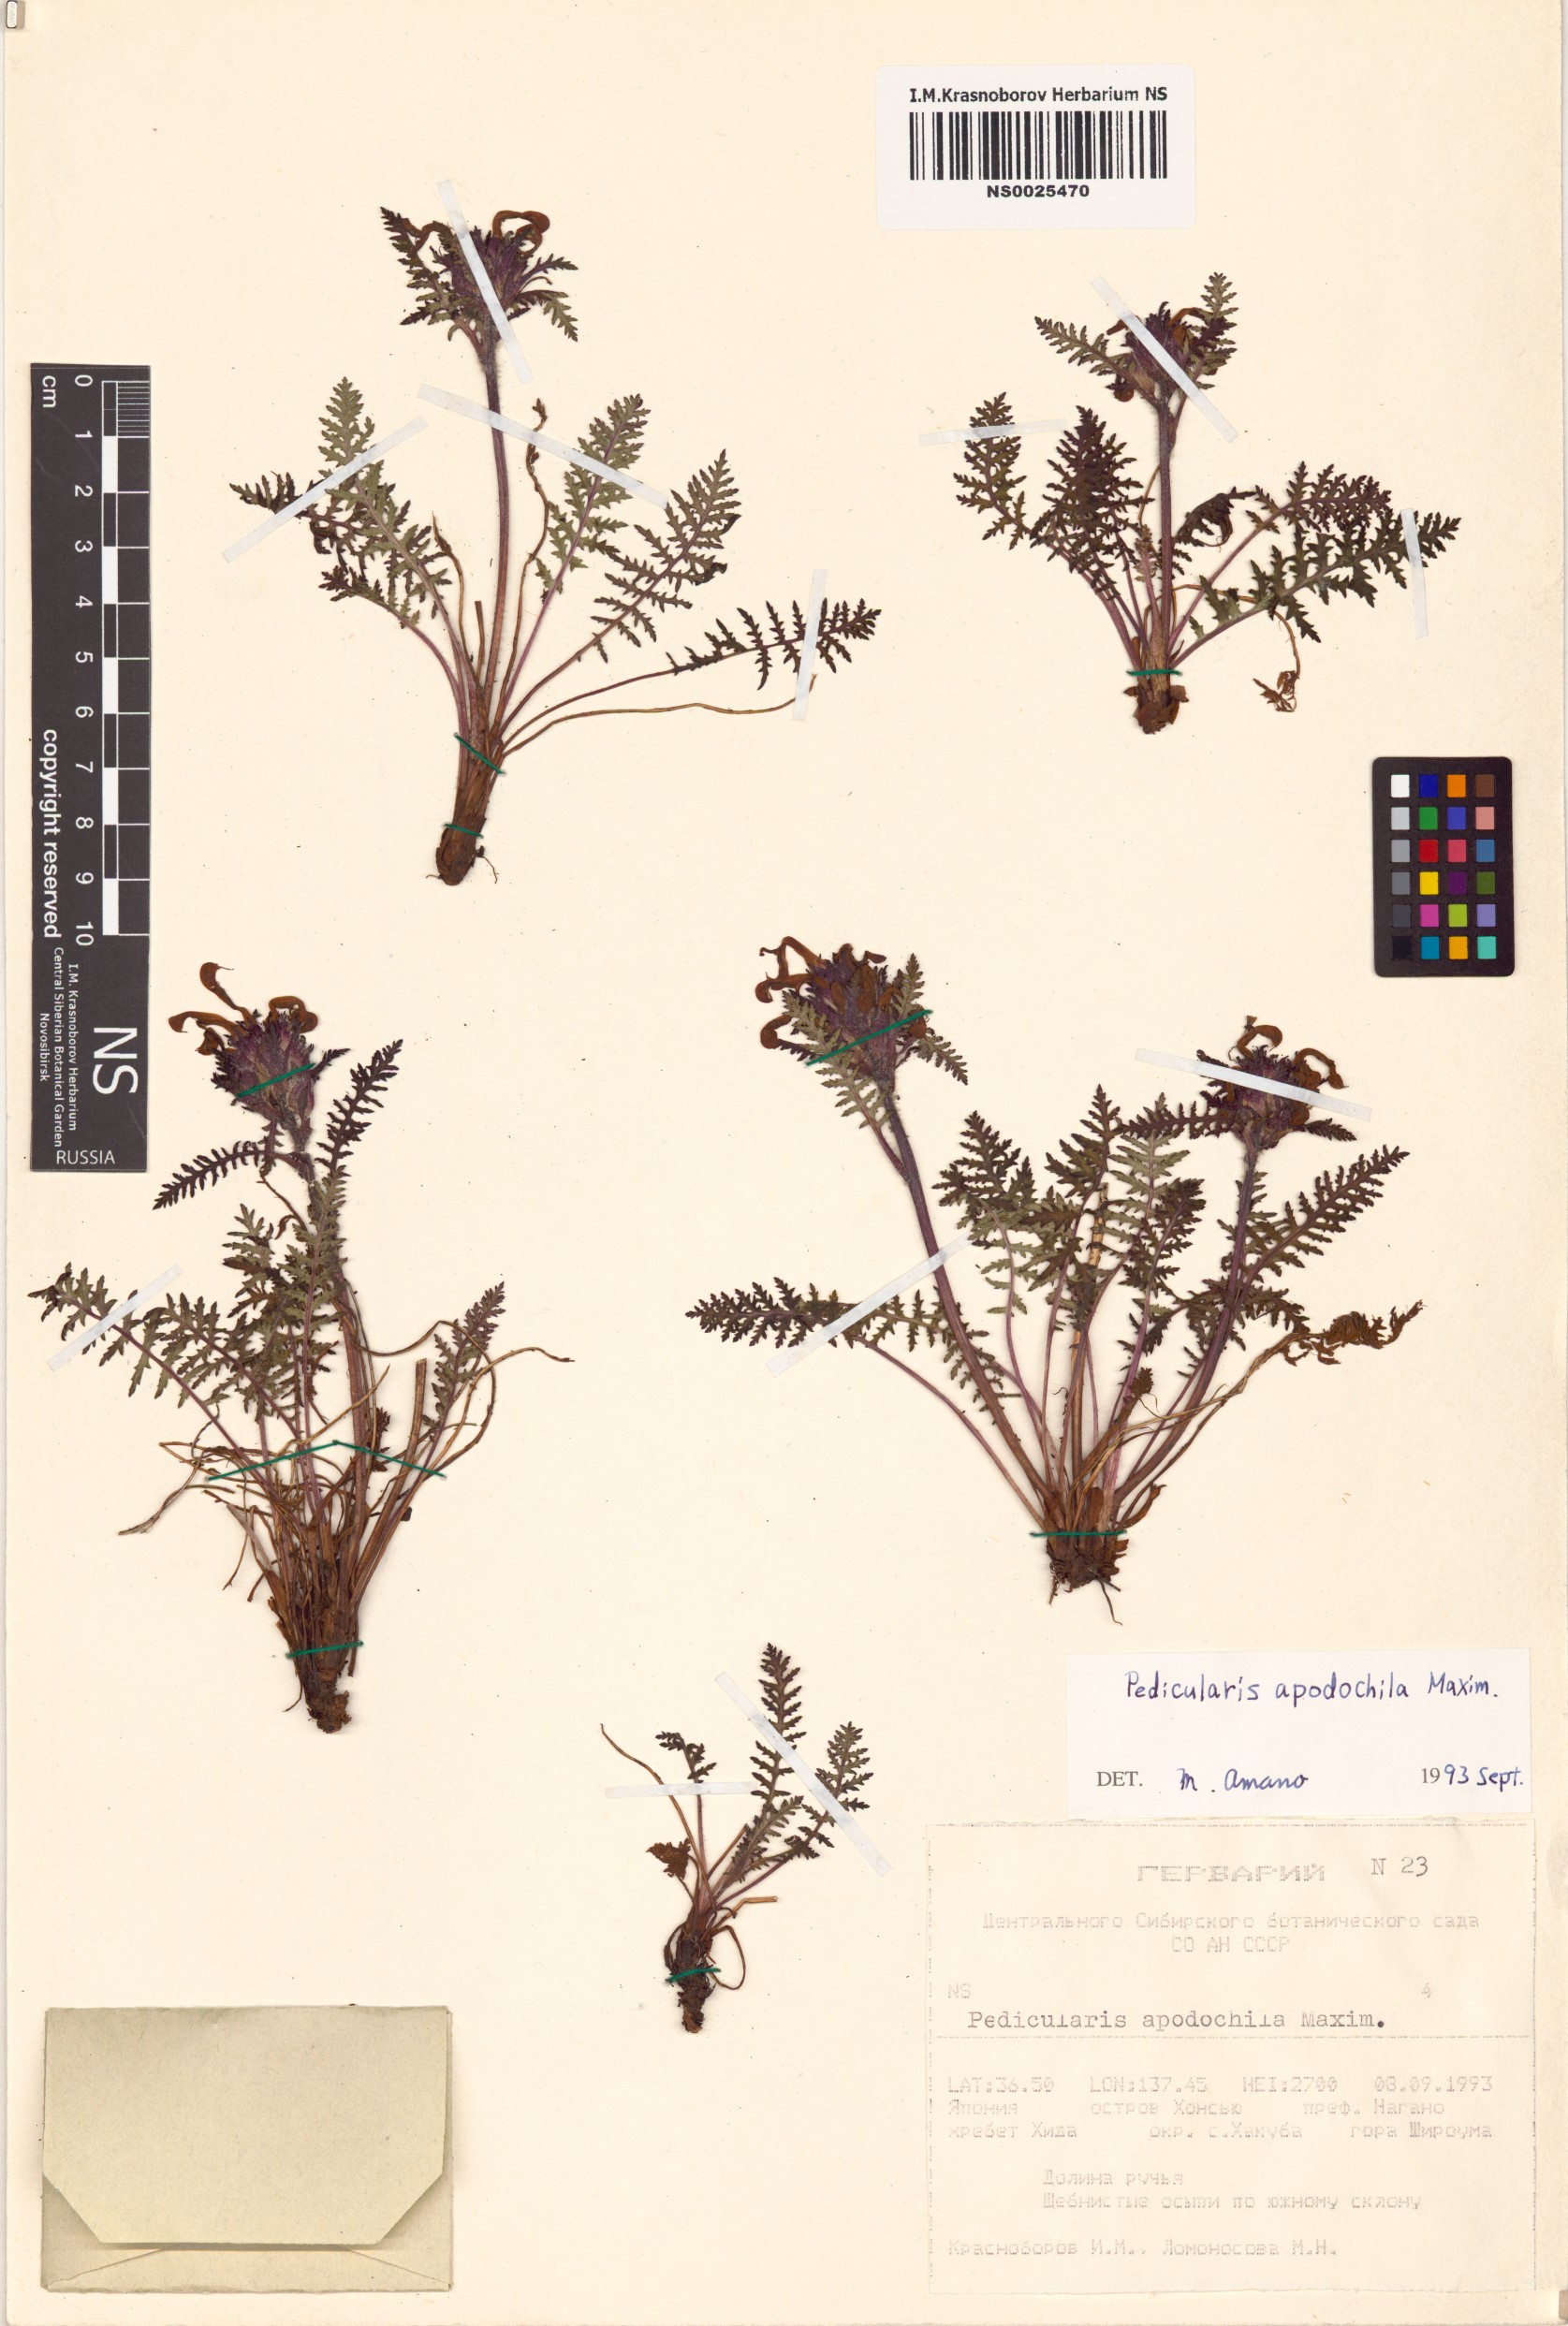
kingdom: Plantae
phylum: Tracheophyta
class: Magnoliopsida
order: Lamiales
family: Orobanchaceae
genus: Pedicularis
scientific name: Pedicularis apodochila
